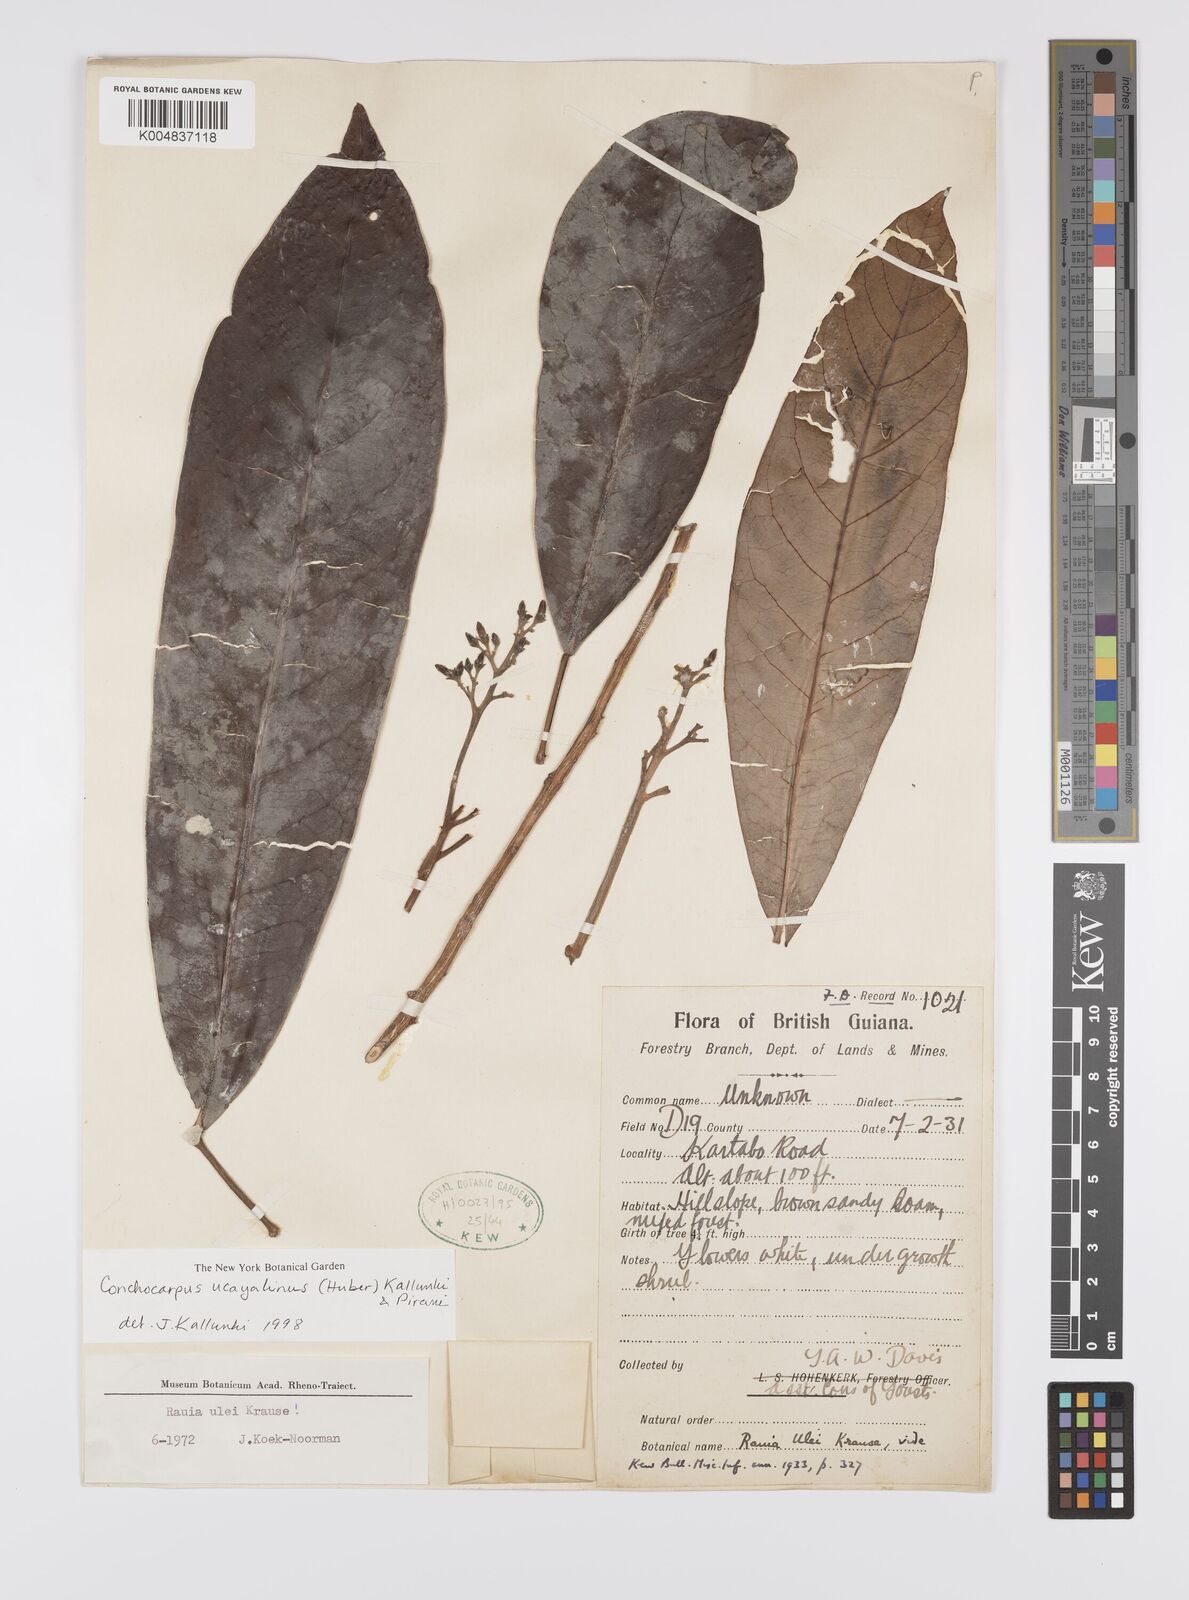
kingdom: Plantae
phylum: Tracheophyta
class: Magnoliopsida
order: Sapindales
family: Rutaceae
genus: Conchocarpus
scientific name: Conchocarpus ucayalinus
